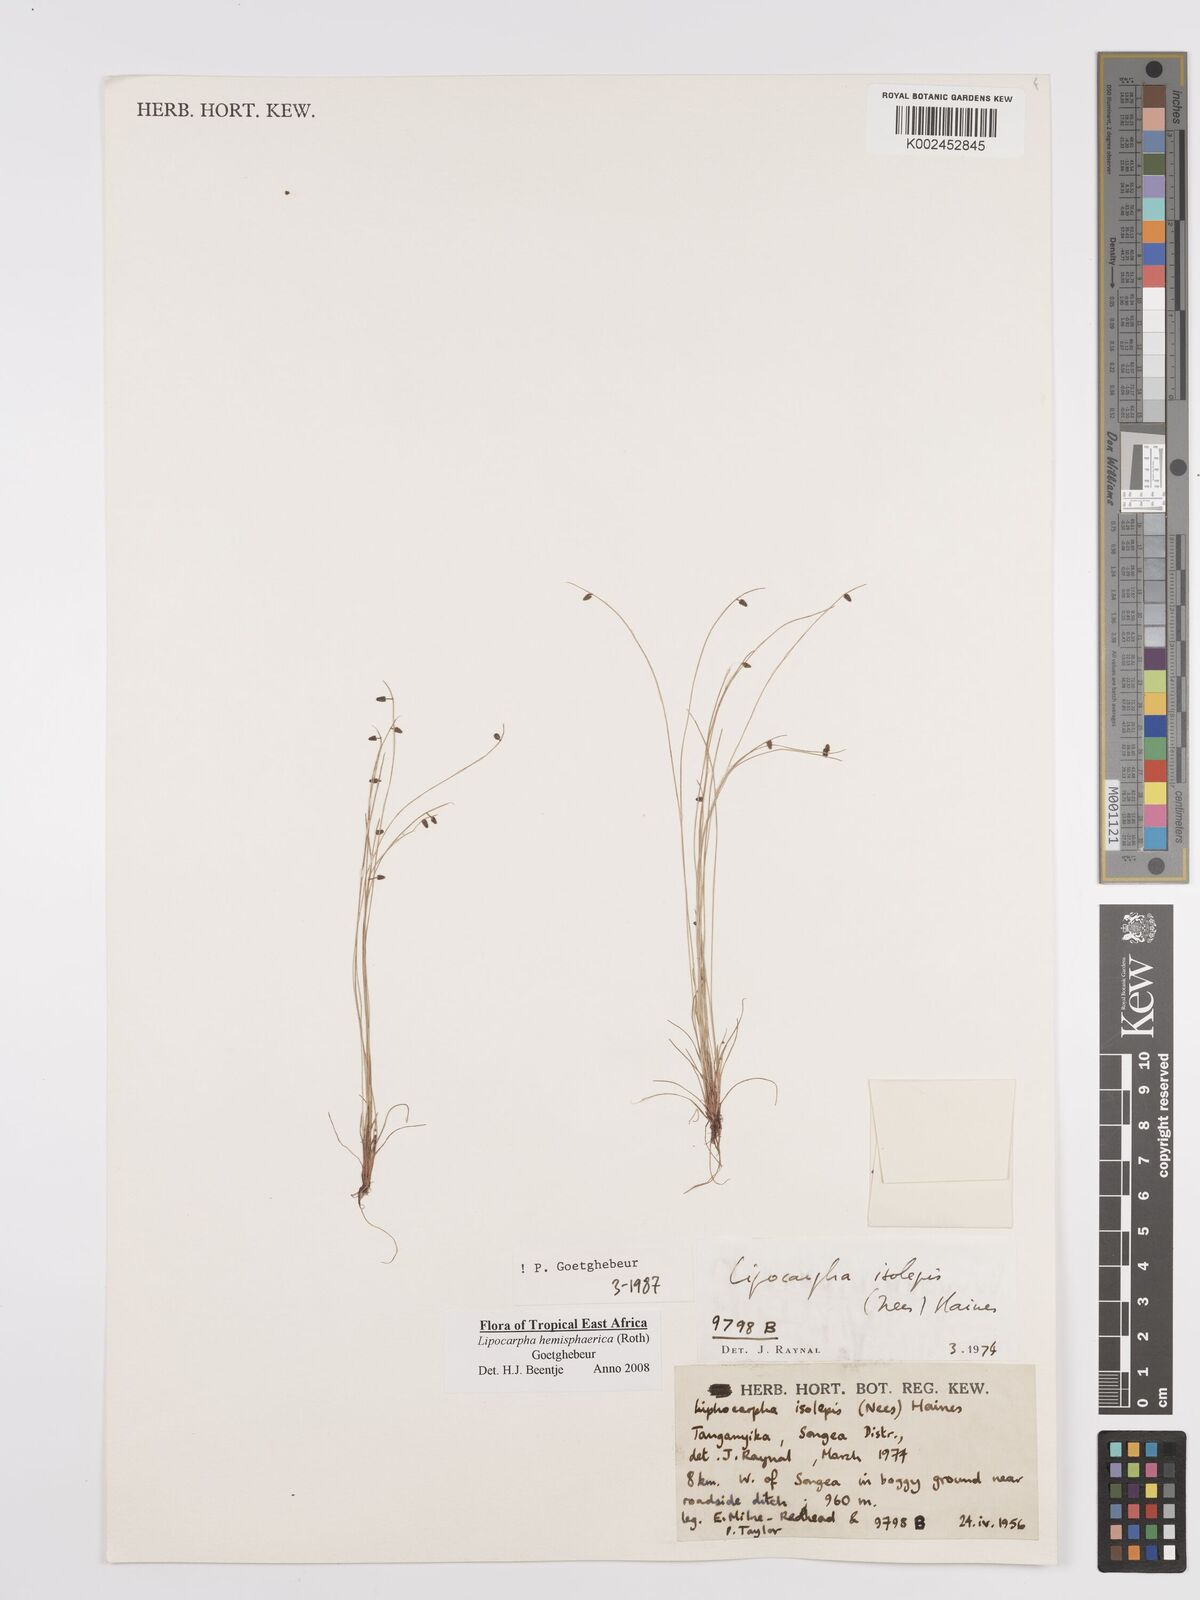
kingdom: Plantae
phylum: Tracheophyta
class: Liliopsida
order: Poales
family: Cyperaceae
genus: Cyperus
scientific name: Cyperus hemisphaericus
